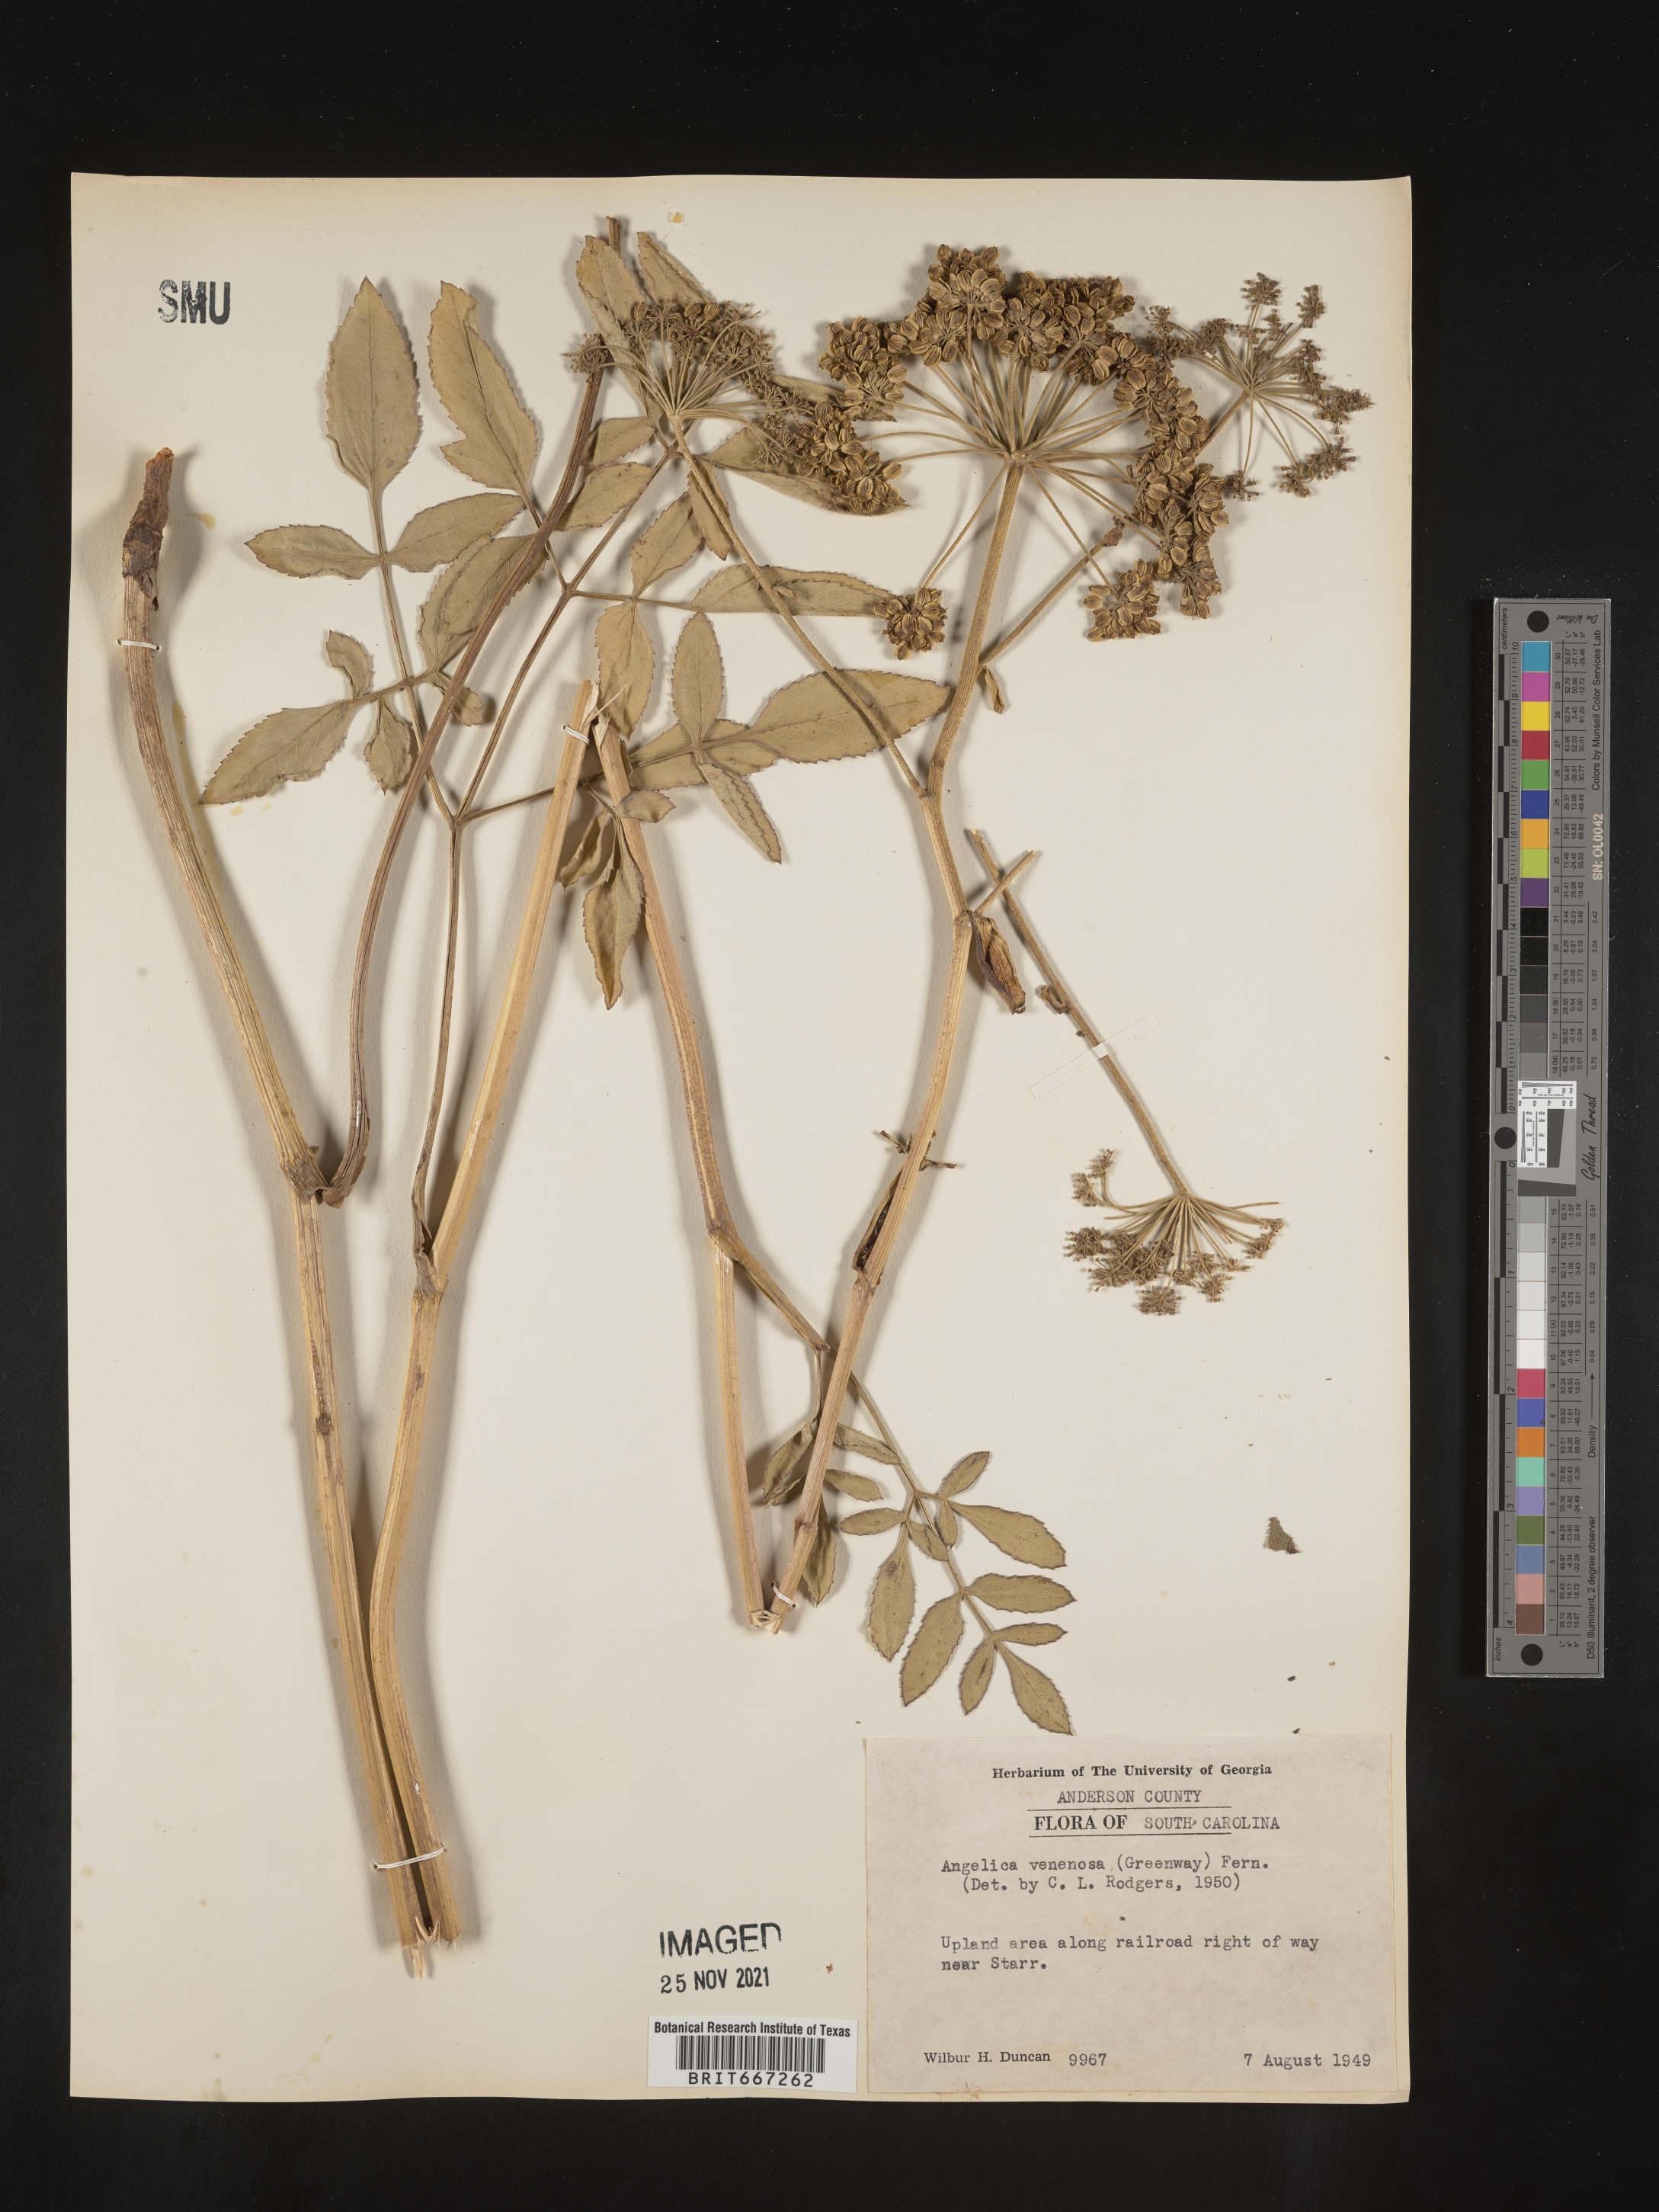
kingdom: Plantae
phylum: Tracheophyta
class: Magnoliopsida
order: Apiales
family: Apiaceae
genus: Angelica
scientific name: Angelica venenosa
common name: Hairy angelica
